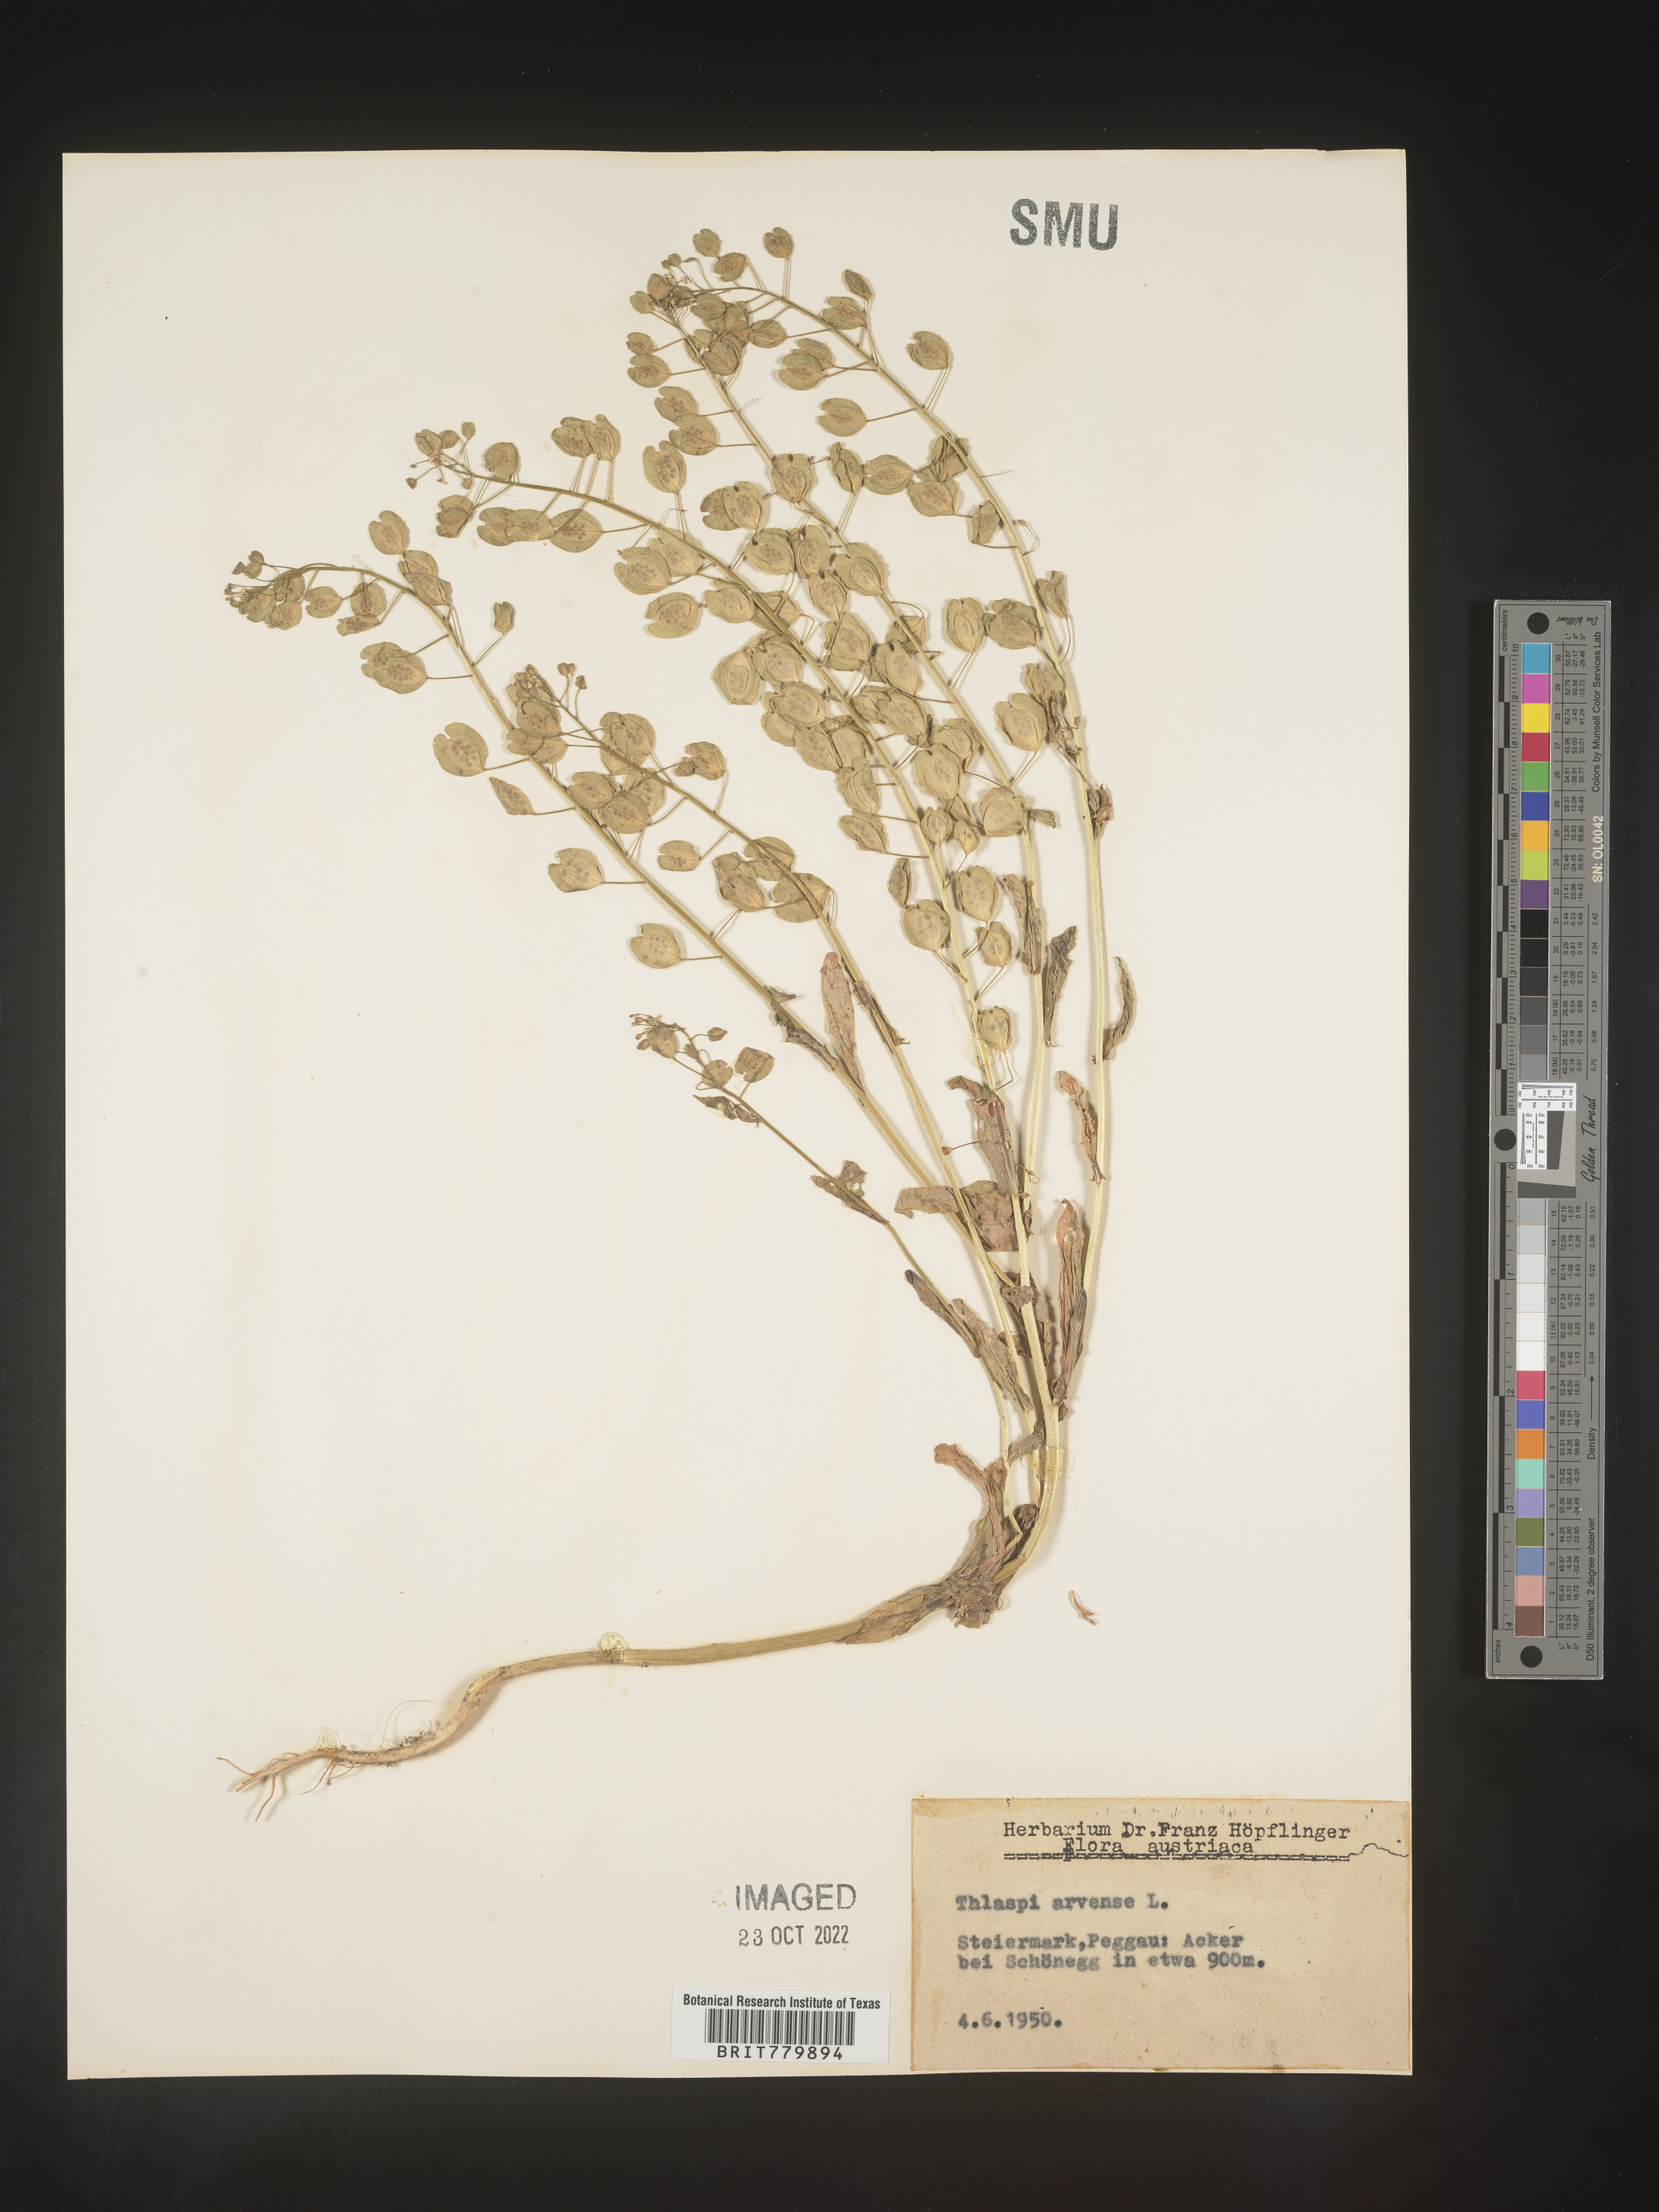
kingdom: Plantae
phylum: Tracheophyta
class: Magnoliopsida
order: Brassicales
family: Brassicaceae
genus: Thlaspi
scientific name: Thlaspi
